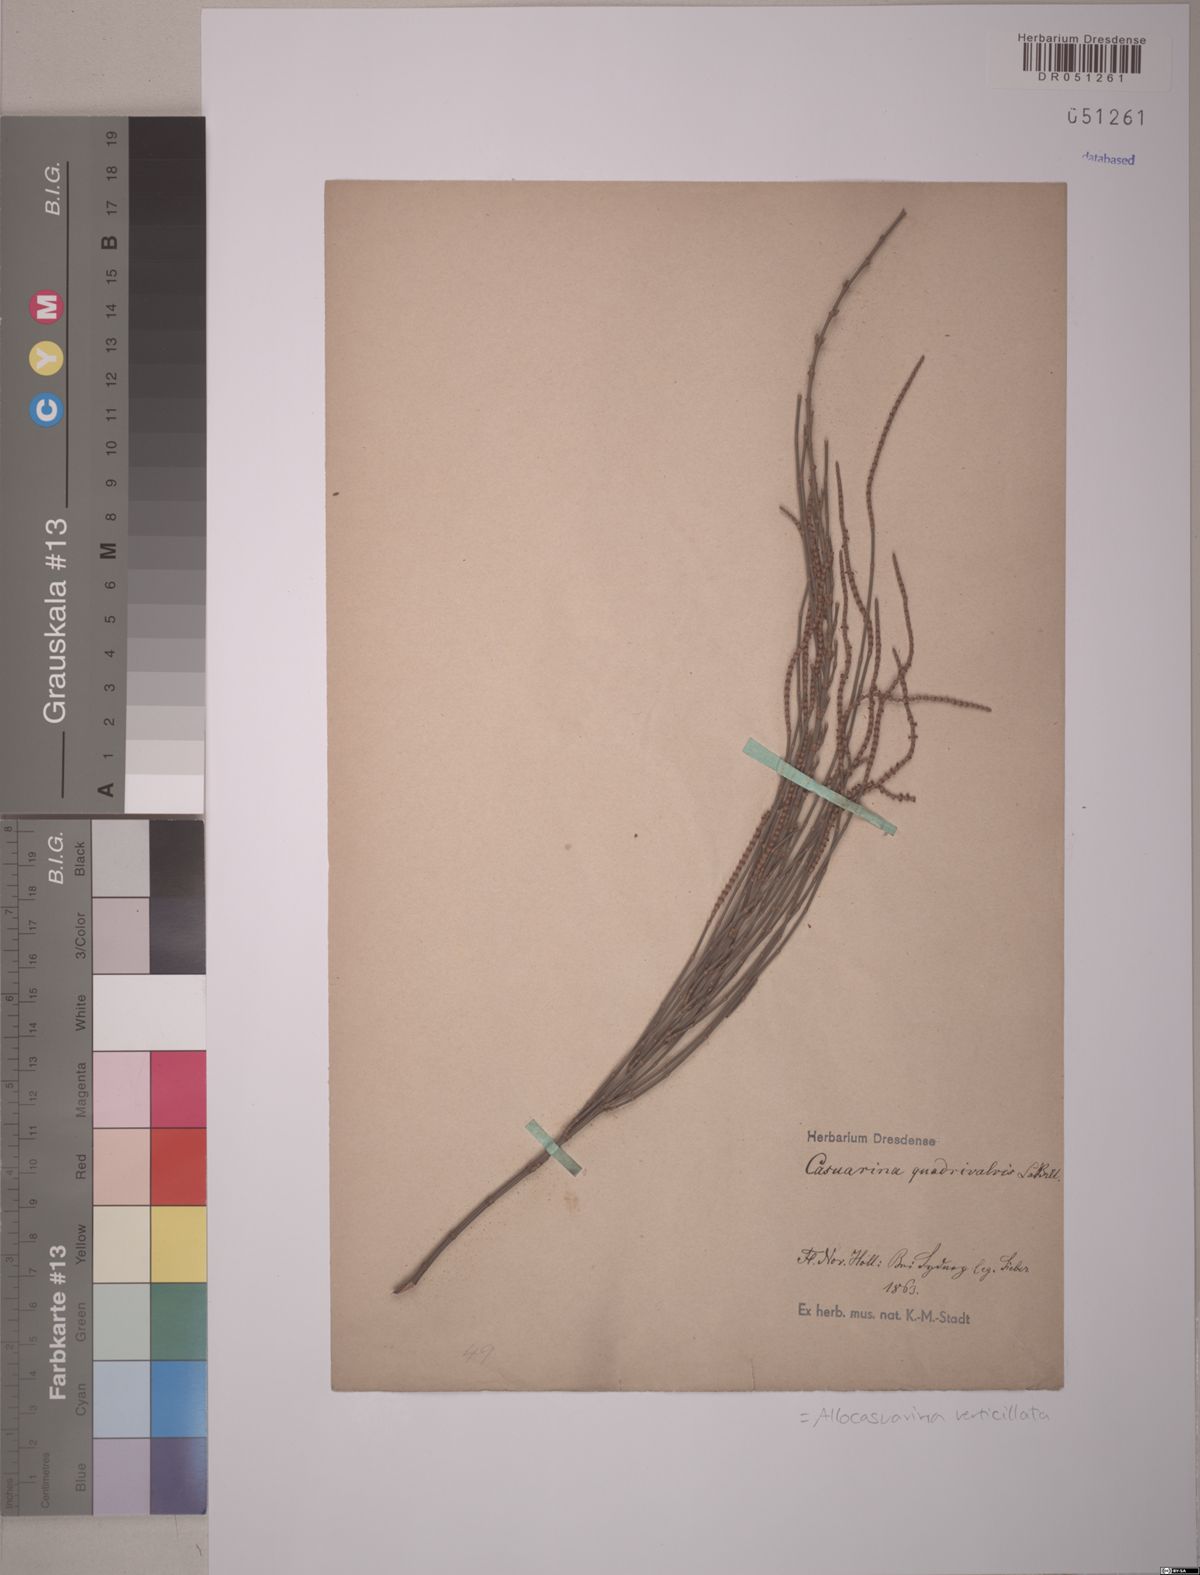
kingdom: Plantae
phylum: Tracheophyta
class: Magnoliopsida
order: Fagales
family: Casuarinaceae
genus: Allocasuarina
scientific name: Allocasuarina verticillata
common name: Drooping she-oak
